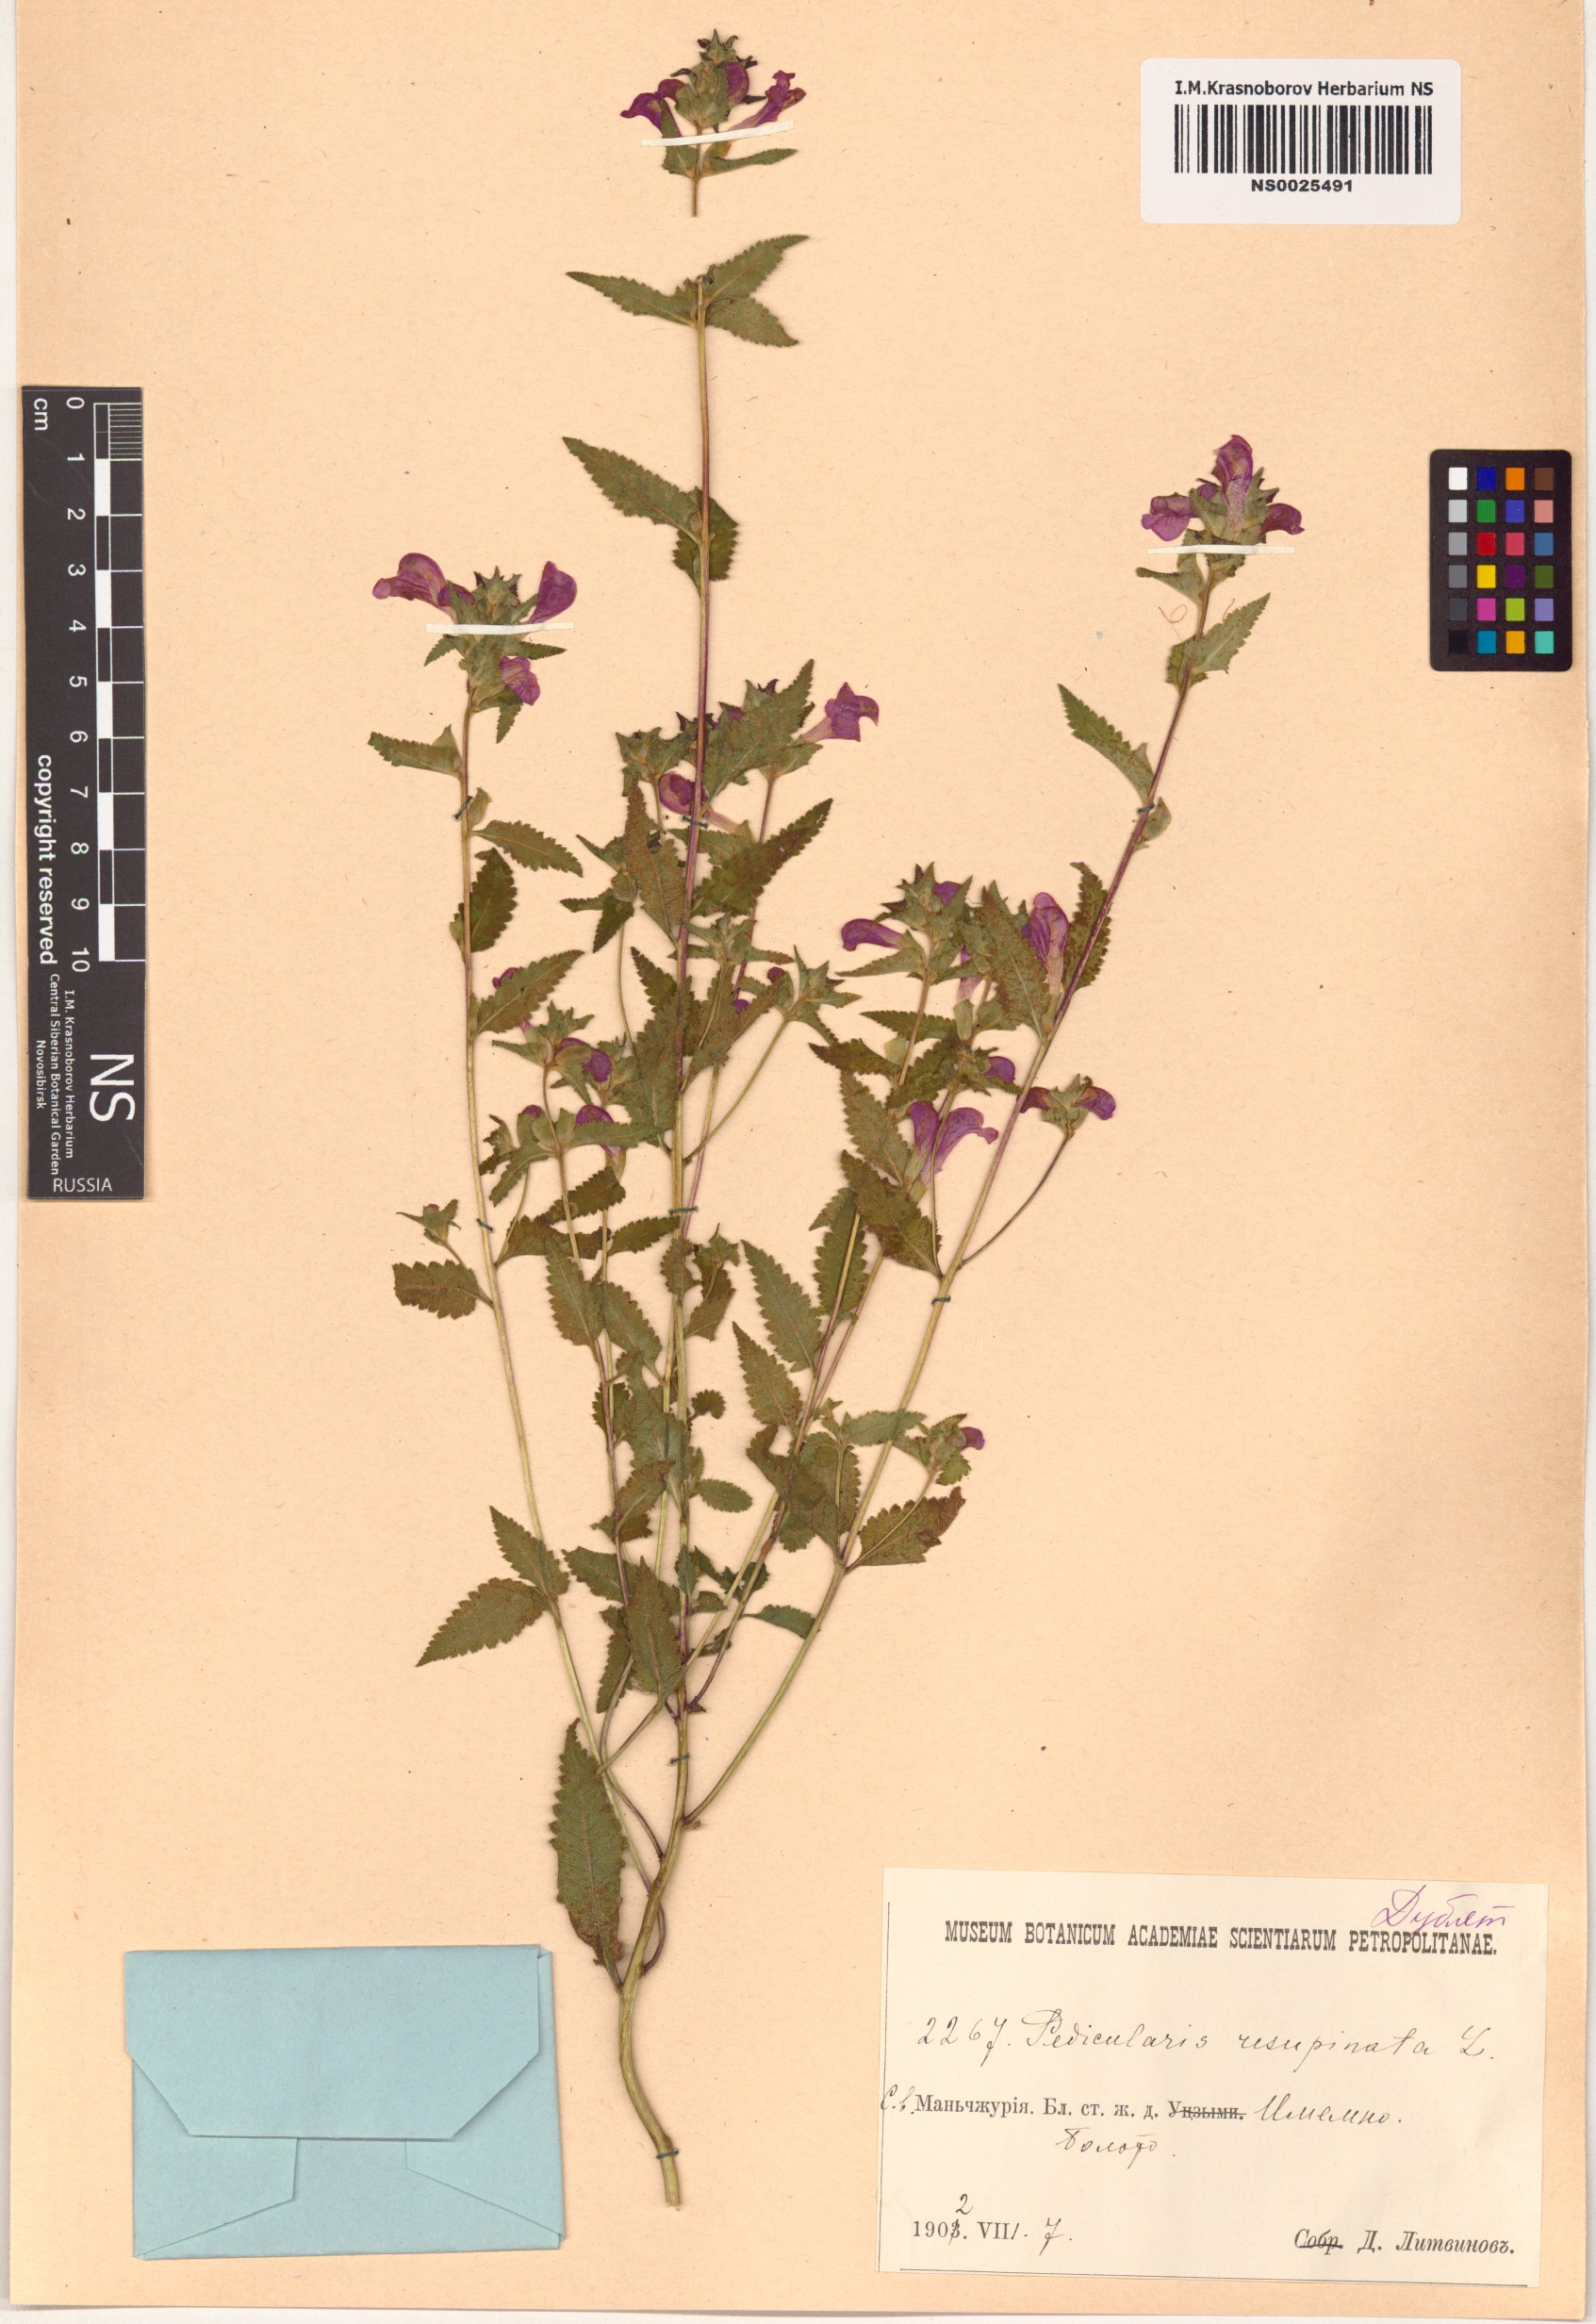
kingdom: Plantae
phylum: Tracheophyta
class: Magnoliopsida
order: Lamiales
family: Orobanchaceae
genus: Pedicularis
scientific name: Pedicularis resupinata
